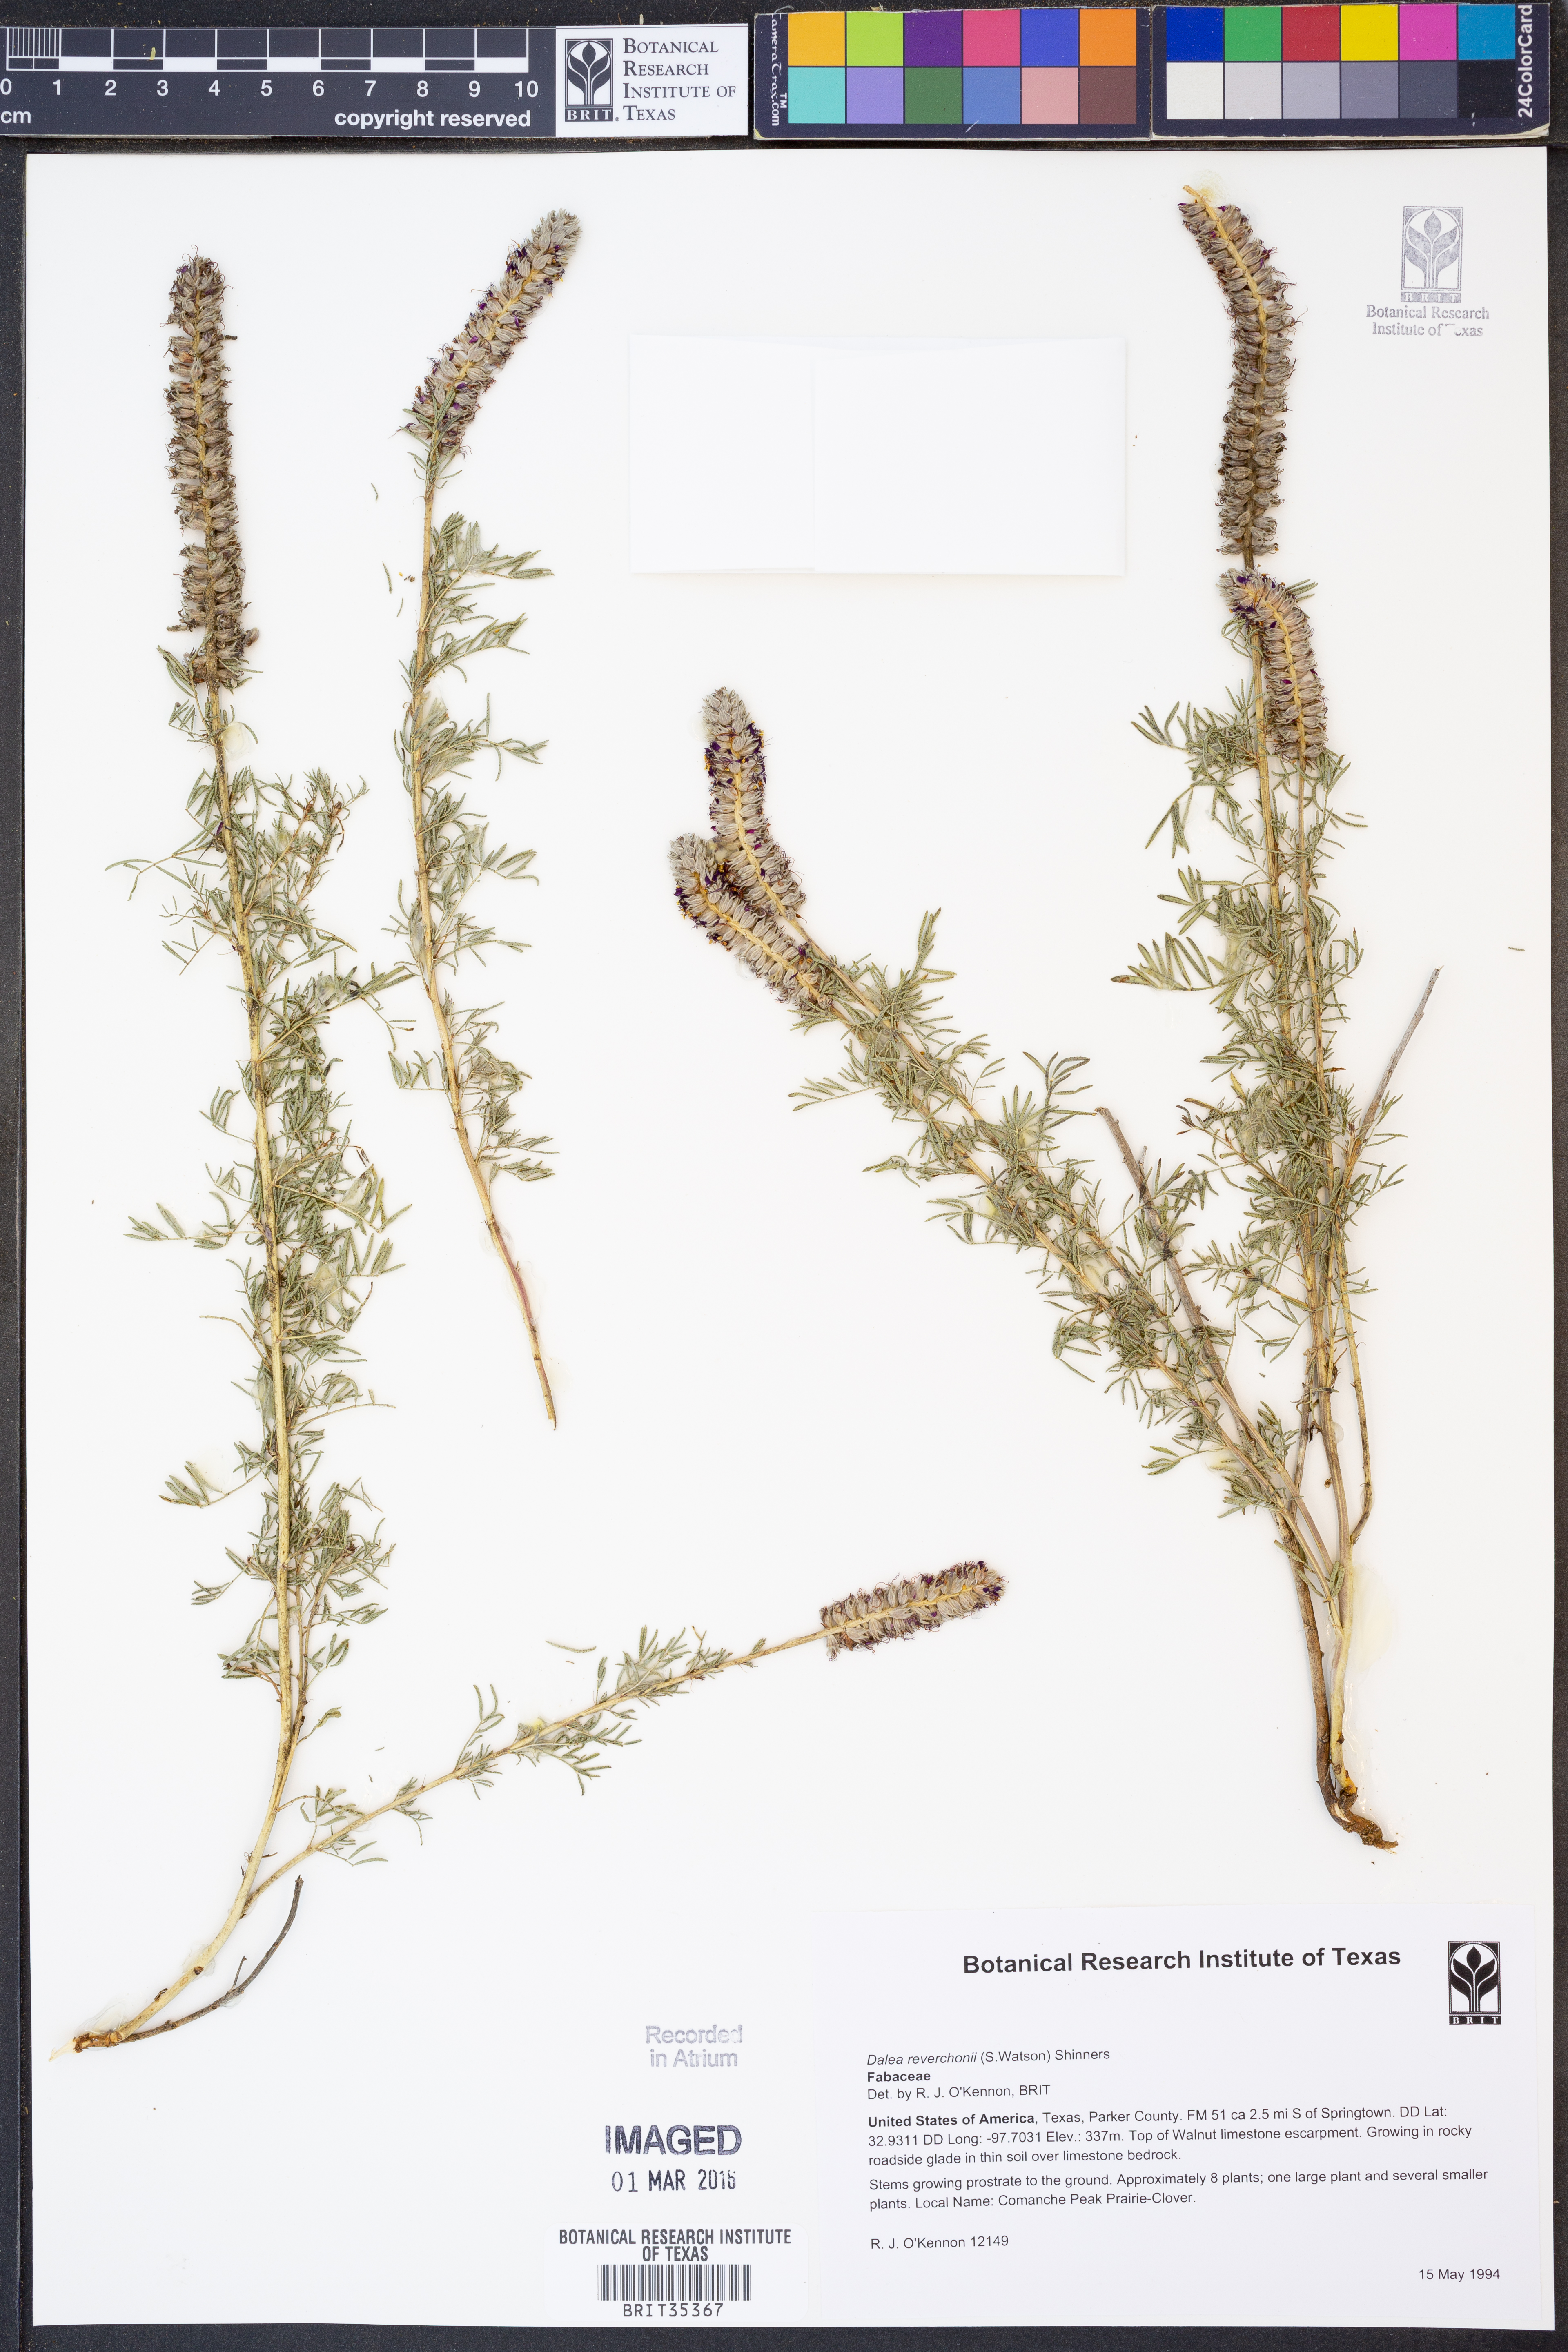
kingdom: Plantae
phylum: Tracheophyta
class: Magnoliopsida
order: Fabales
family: Fabaceae
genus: Dalea
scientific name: Dalea reverchonii
